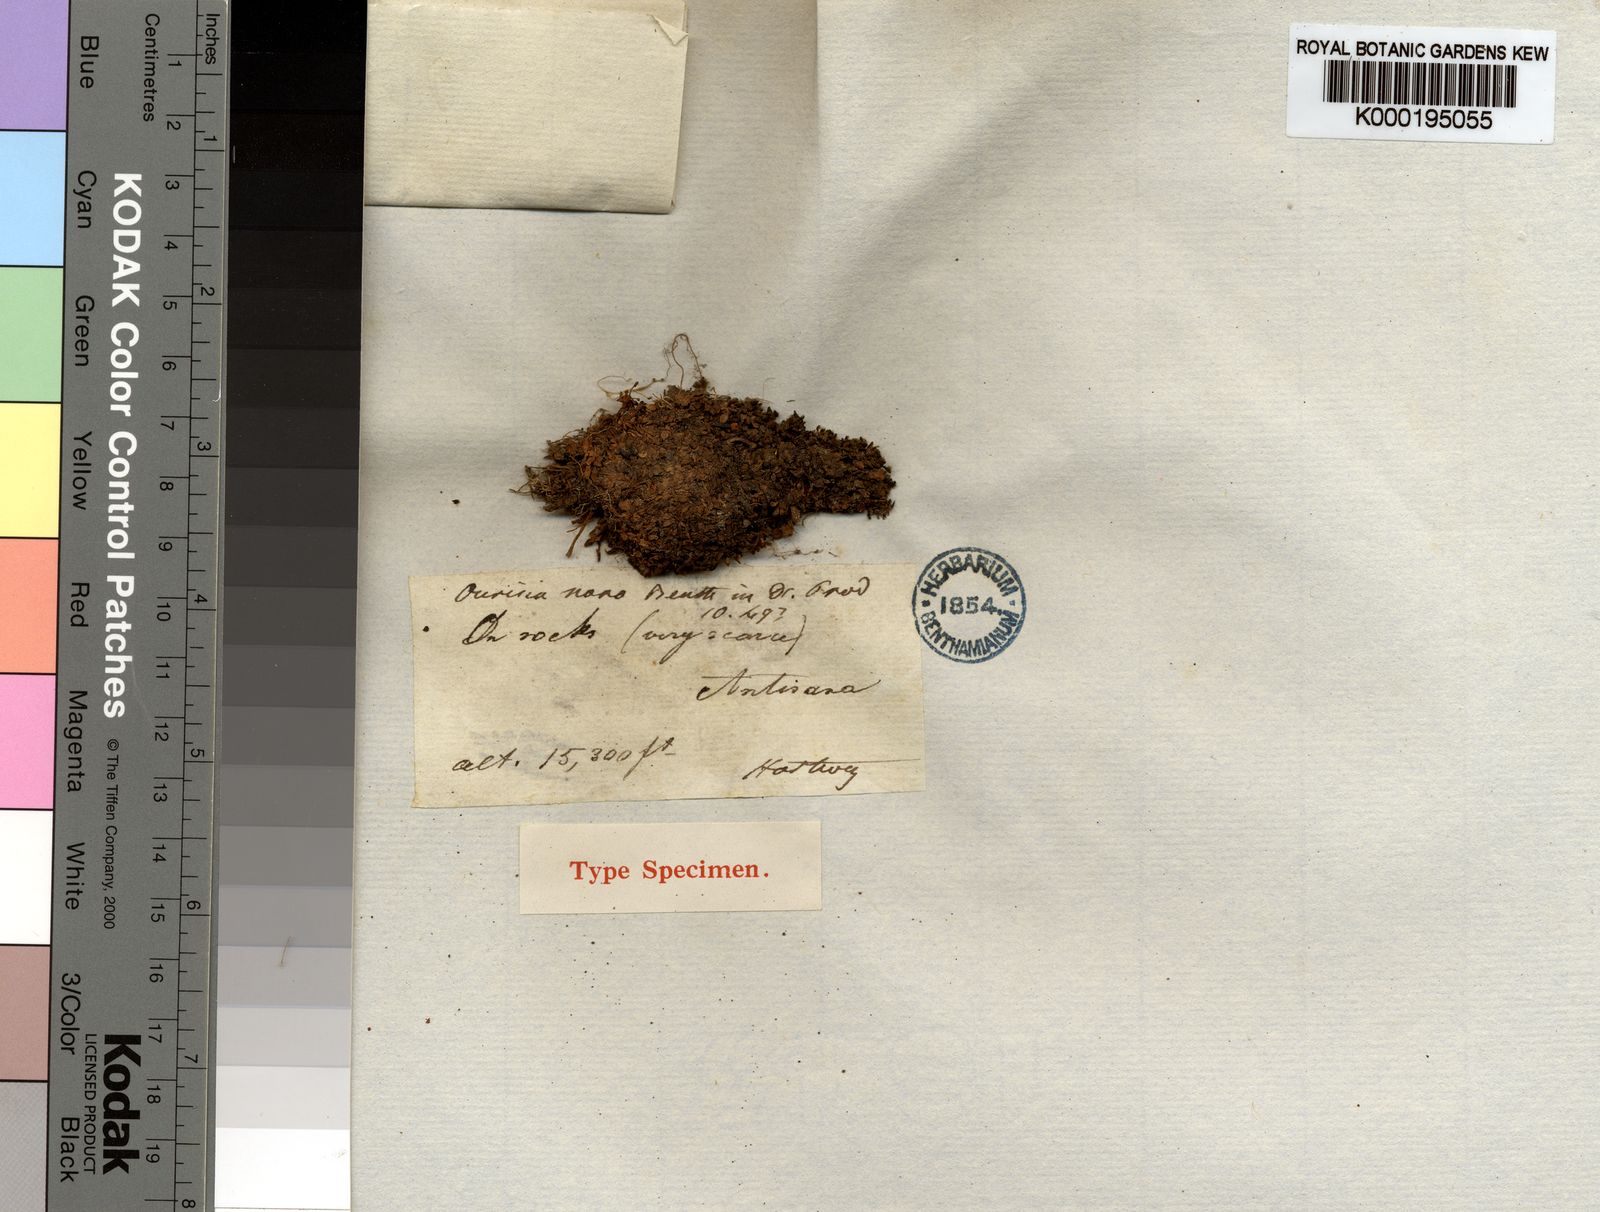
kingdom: Plantae
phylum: Tracheophyta
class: Magnoliopsida
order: Lamiales
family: Plantaginaceae
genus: Ourisia
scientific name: Ourisia muscosa
